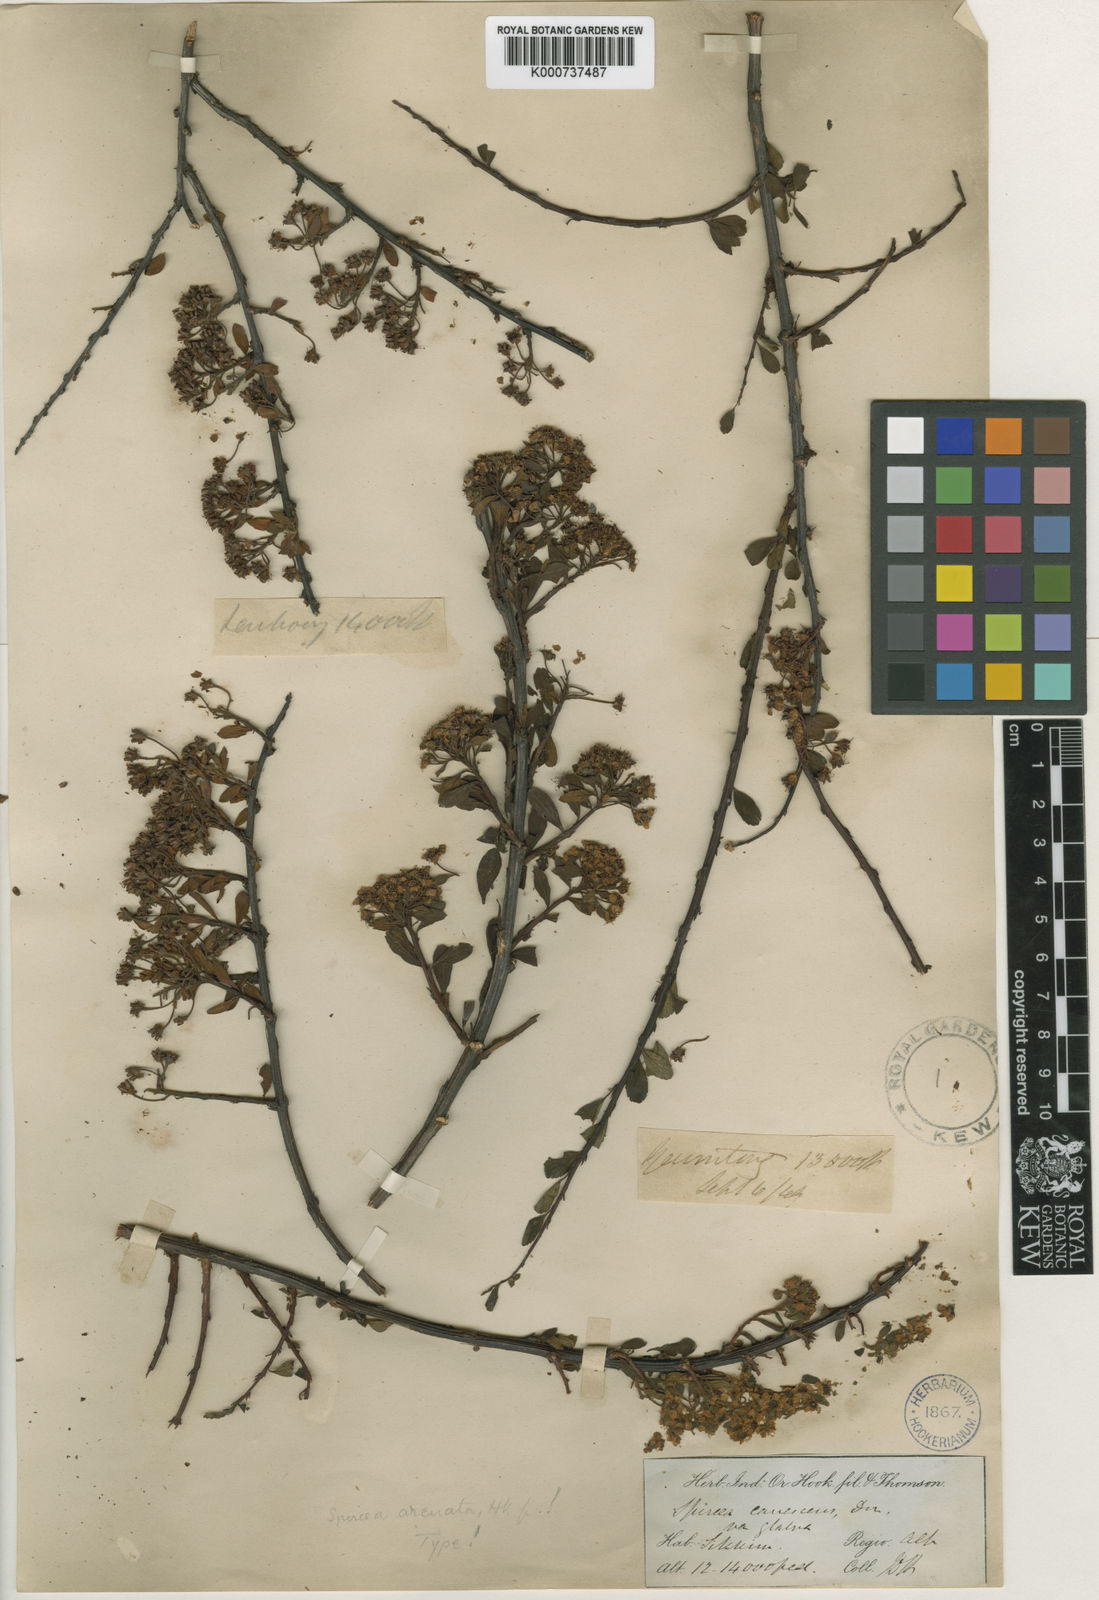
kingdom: Plantae
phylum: Tracheophyta
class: Magnoliopsida
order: Rosales
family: Rosaceae
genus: Spiraea
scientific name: Spiraea arcuata
